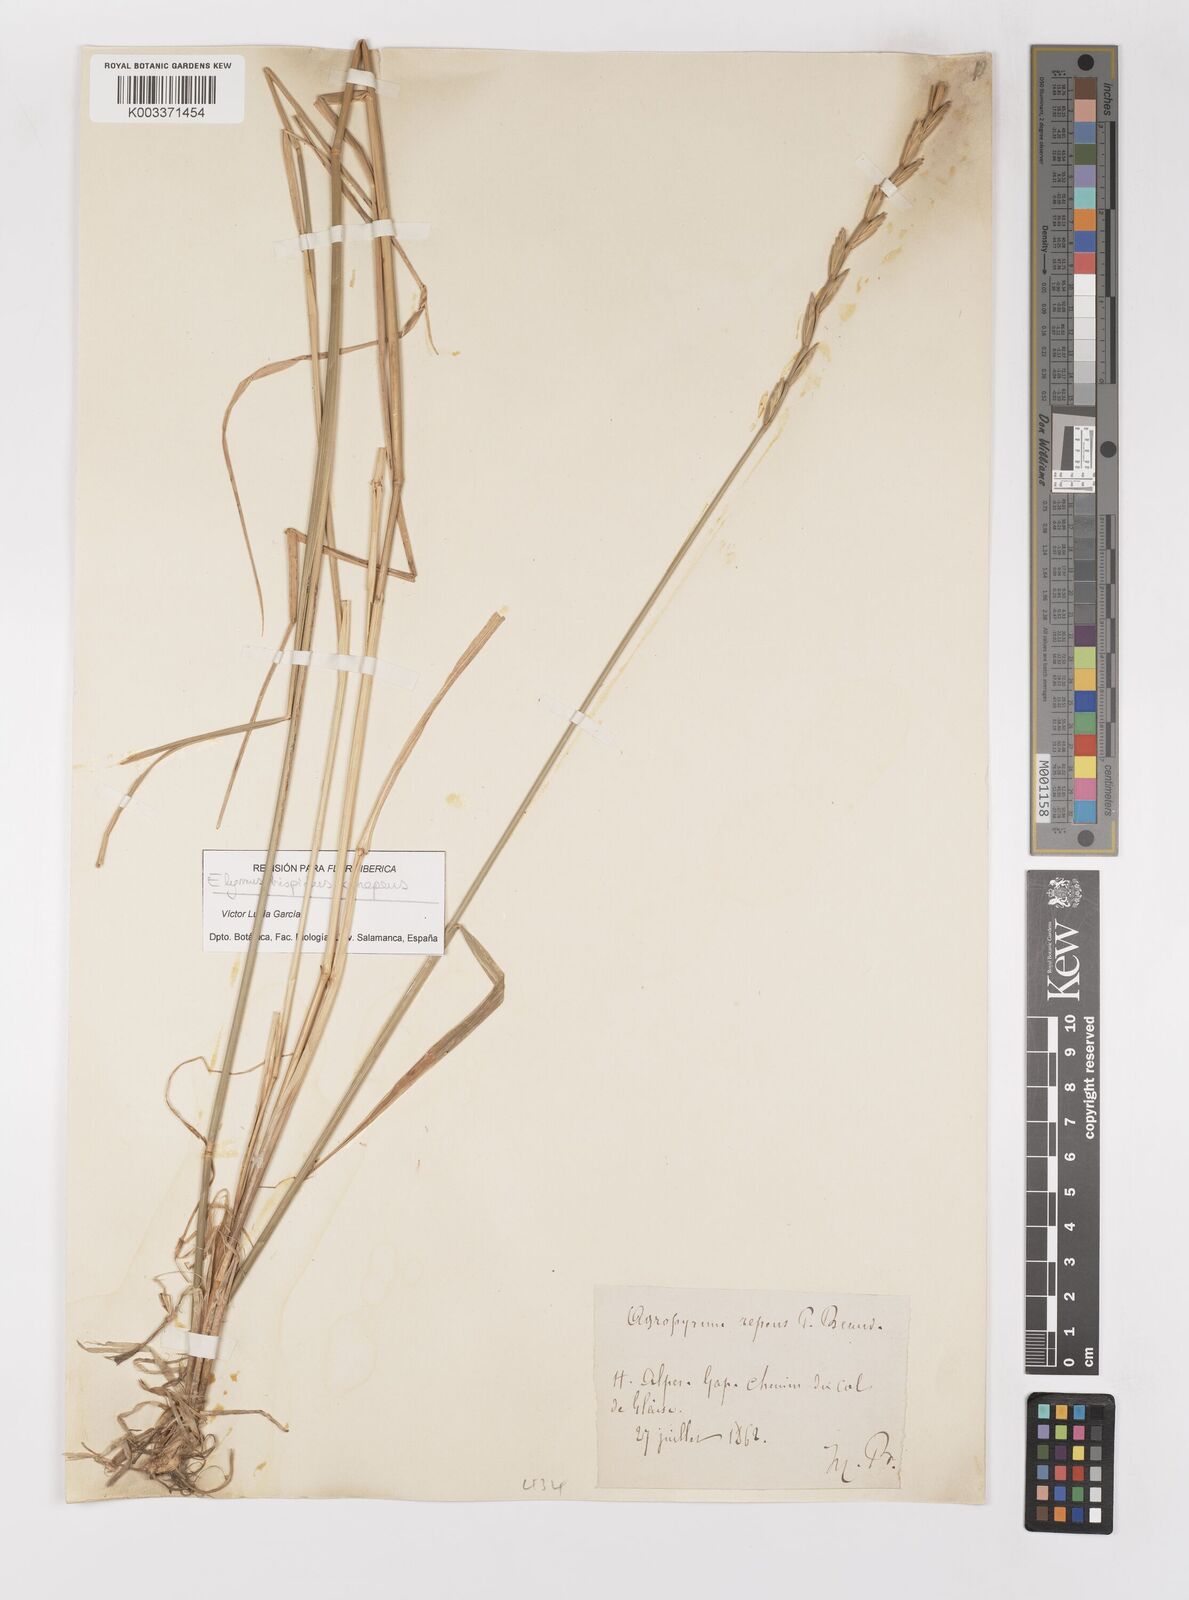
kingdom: Plantae
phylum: Tracheophyta
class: Liliopsida
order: Poales
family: Poaceae
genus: Elymus
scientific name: Elymus repens
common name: Quackgrass
